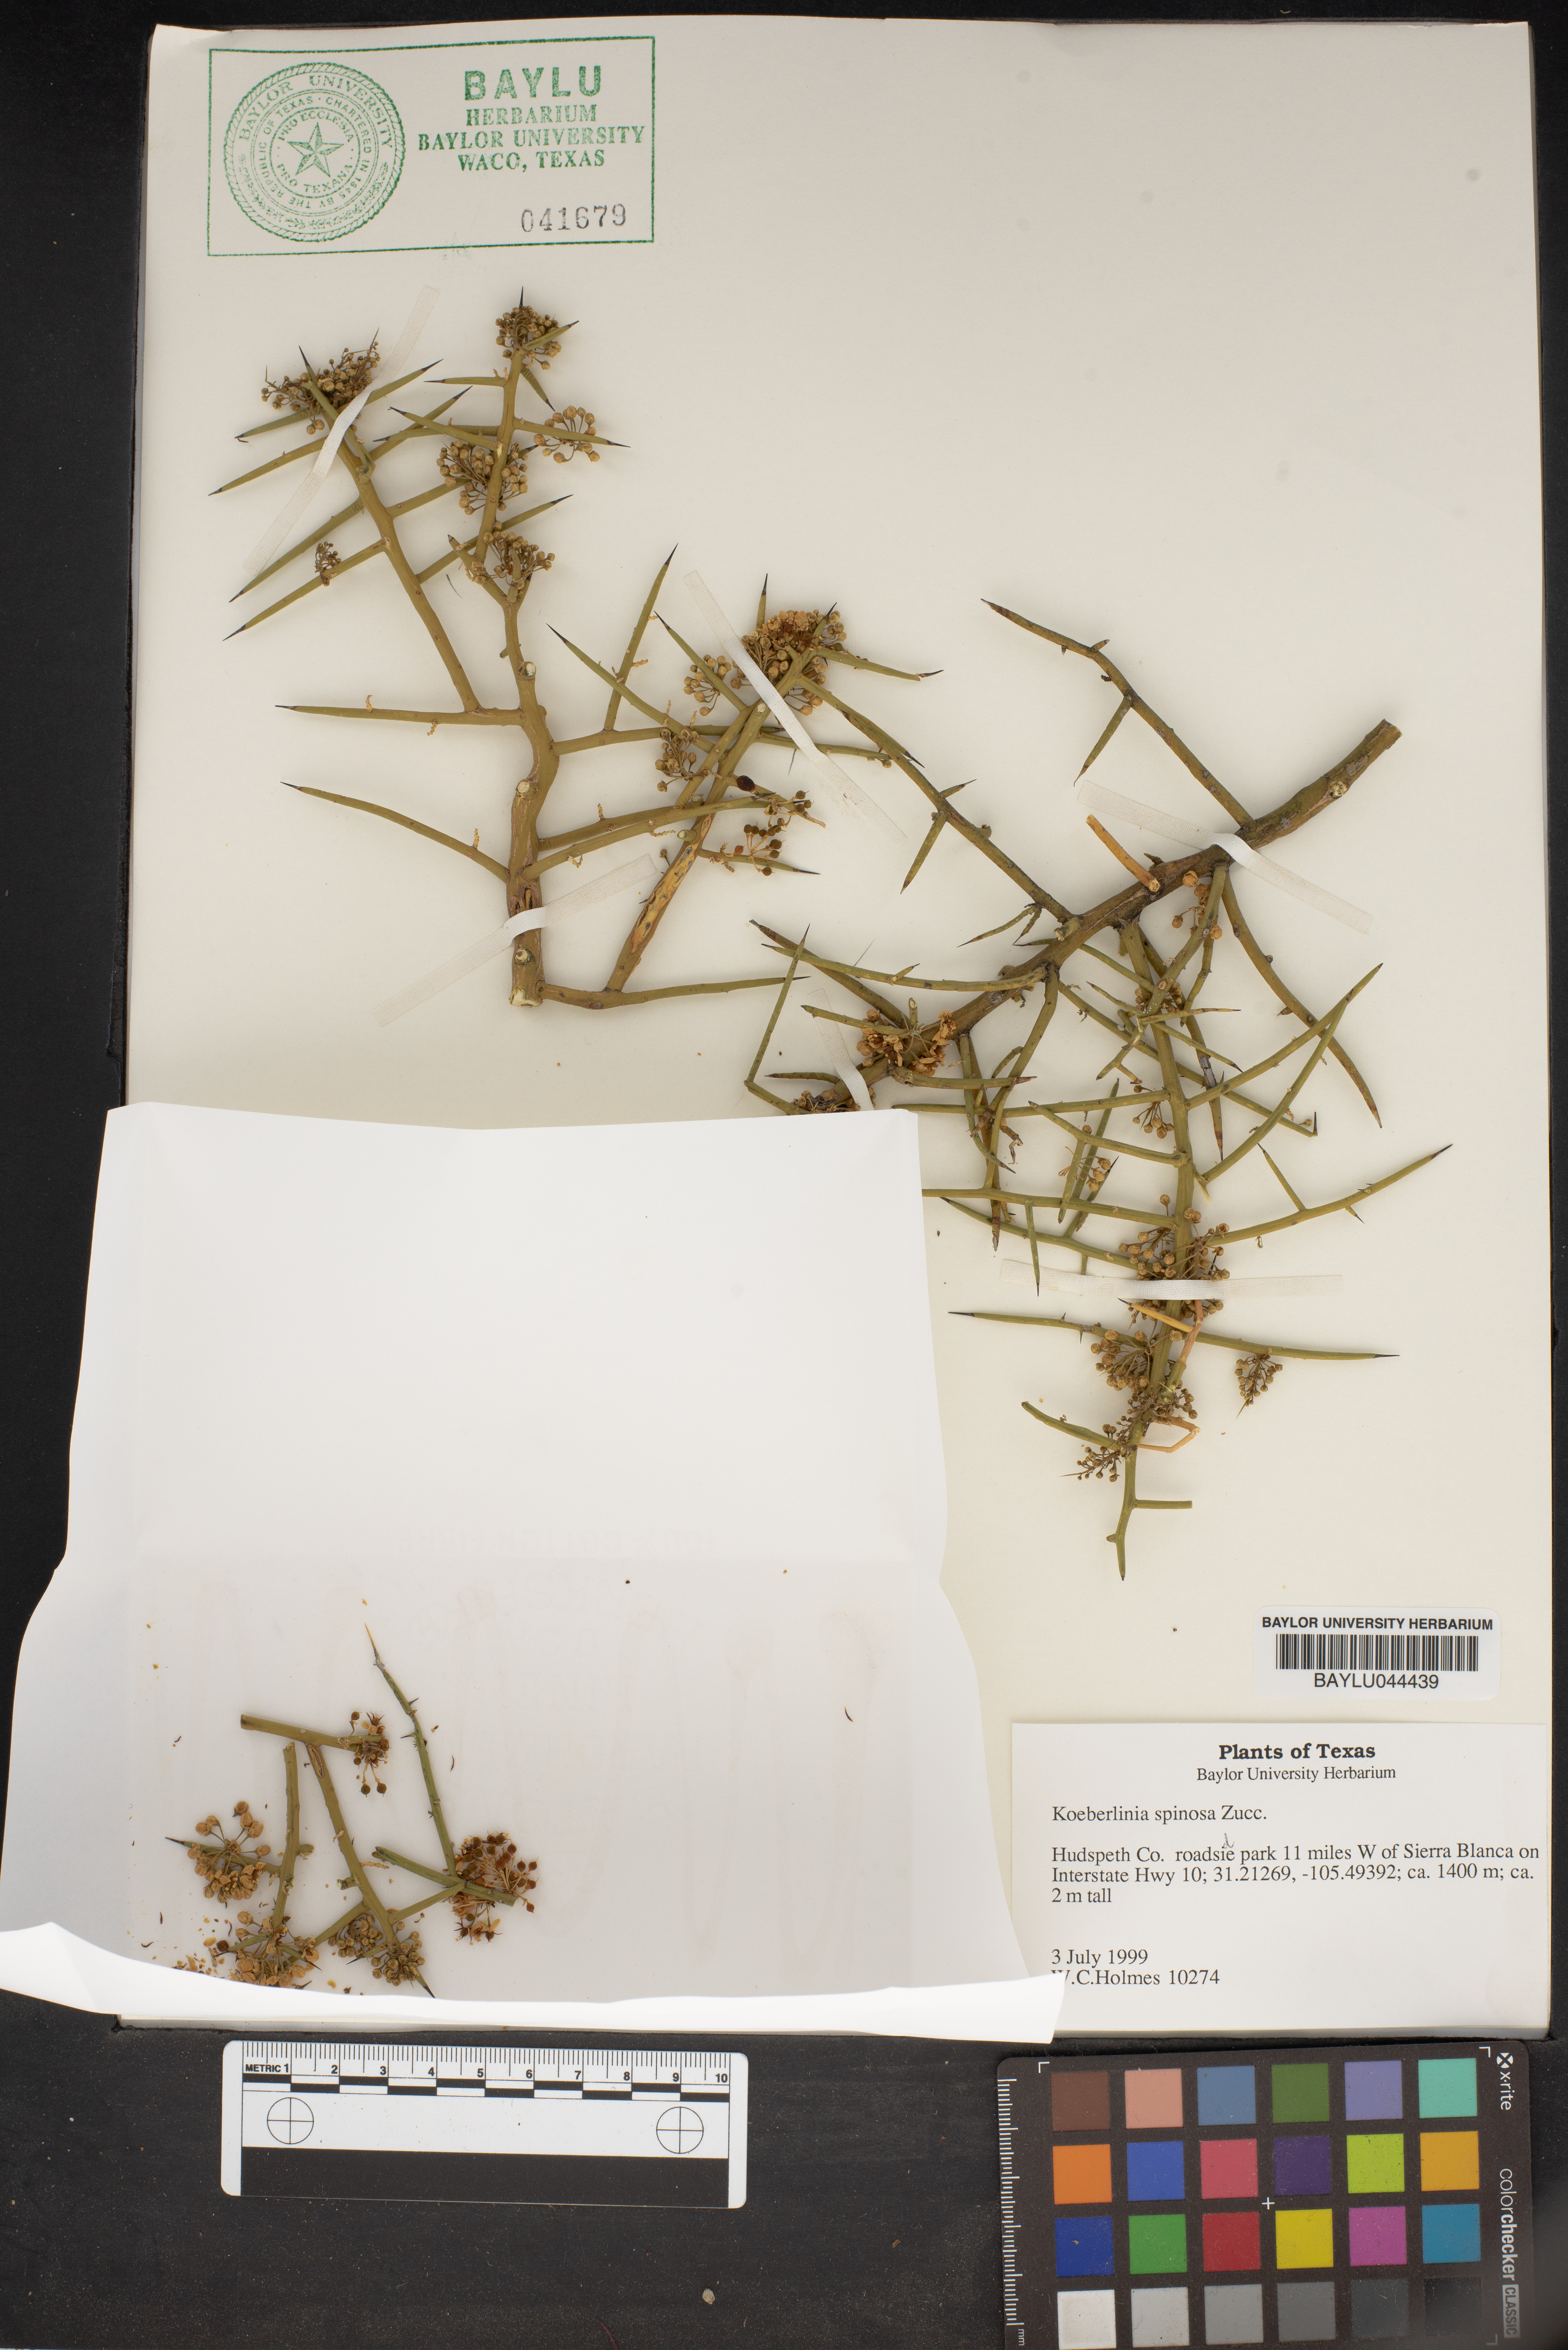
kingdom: Plantae
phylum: Tracheophyta
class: Magnoliopsida
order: Brassicales
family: Koeberliniaceae
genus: Koeberlinia
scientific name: Koeberlinia spinosa
